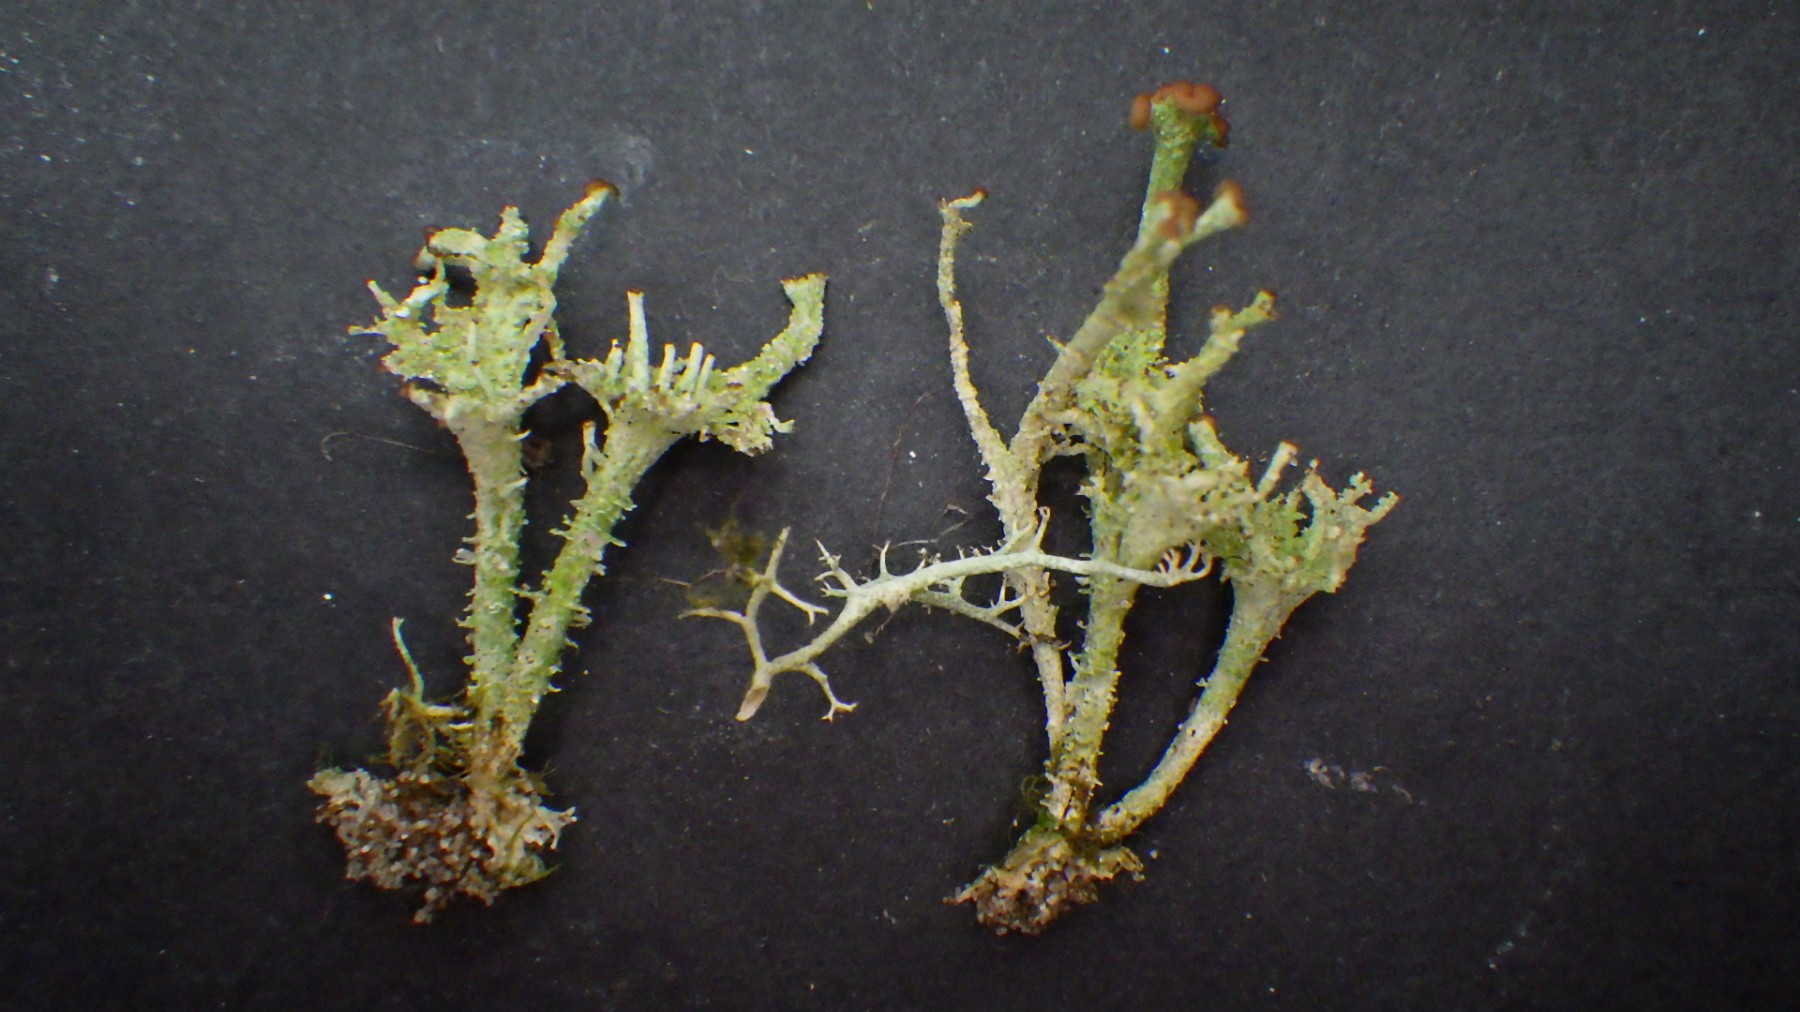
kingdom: Fungi
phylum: Ascomycota
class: Lecanoromycetes
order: Lecanorales
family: Cladoniaceae
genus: Cladonia
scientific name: Cladonia ramulosa
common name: kliddet bægerlav
